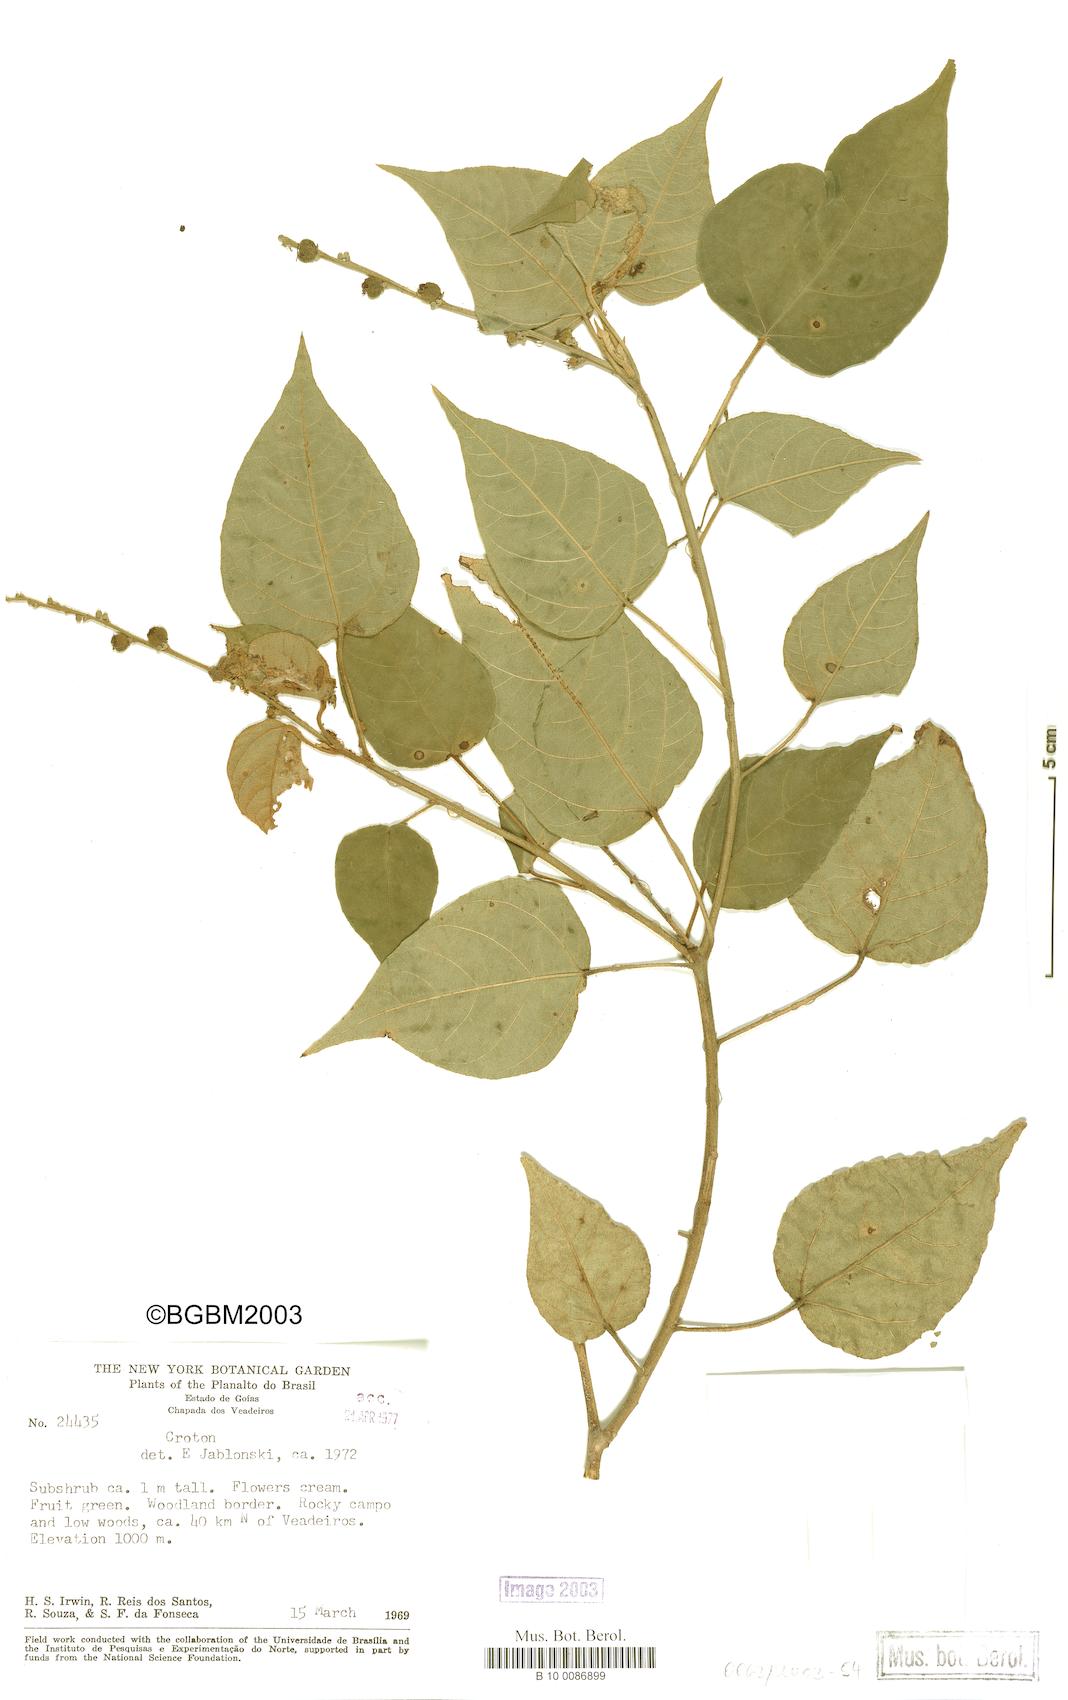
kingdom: Plantae
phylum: Tracheophyta
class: Magnoliopsida
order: Malpighiales
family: Euphorbiaceae
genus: Croton
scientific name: Croton
